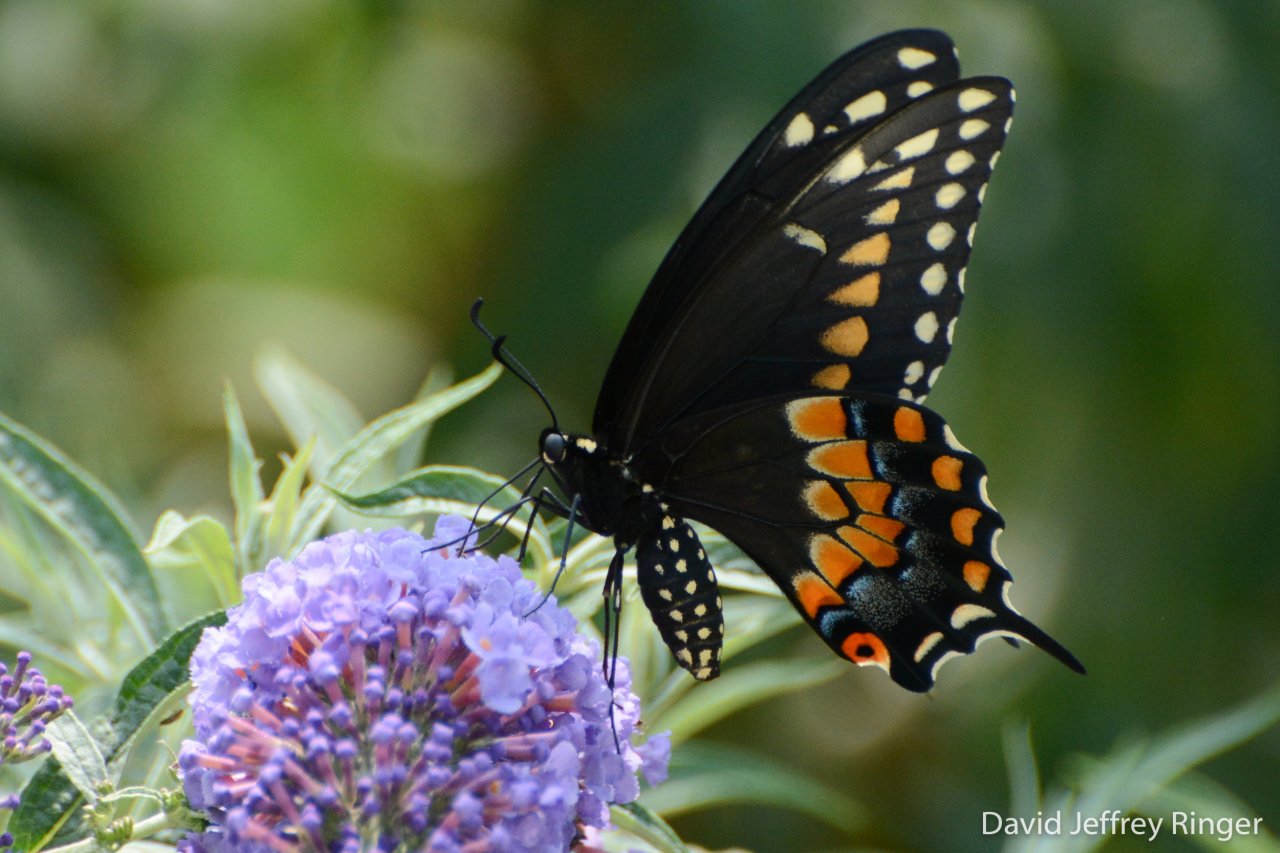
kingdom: Animalia
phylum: Arthropoda
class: Insecta
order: Lepidoptera
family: Papilionidae
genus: Papilio
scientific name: Papilio polyxenes
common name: Black Swallowtail
